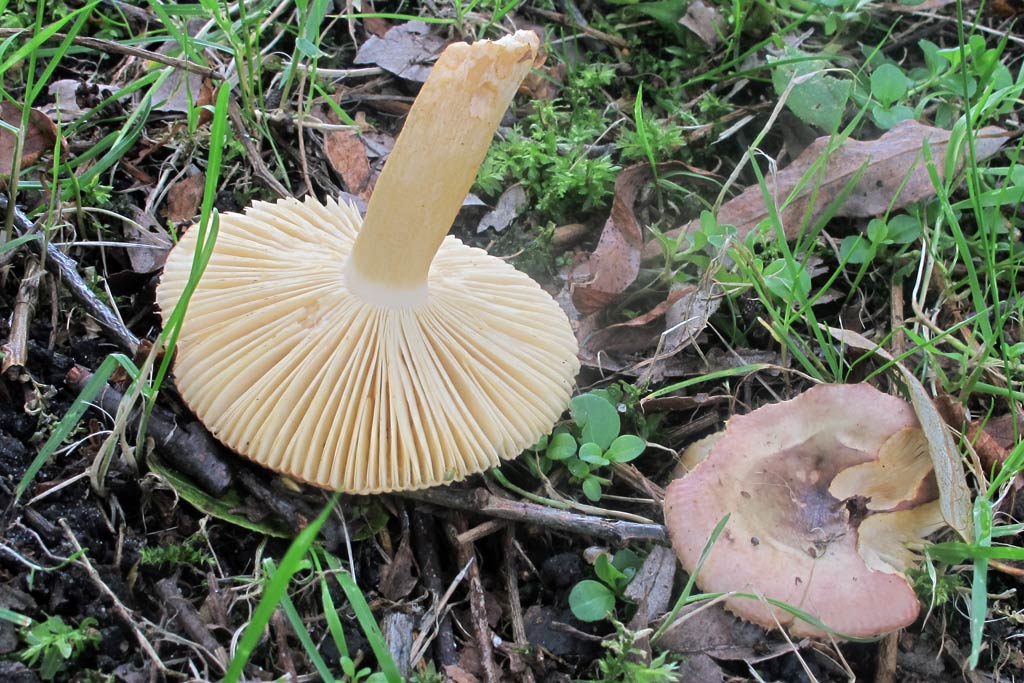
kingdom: Fungi
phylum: Basidiomycota
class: Agaricomycetes
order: Russulales
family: Russulaceae
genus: Russula
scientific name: Russula versicolor
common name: foranderlig skørhat
